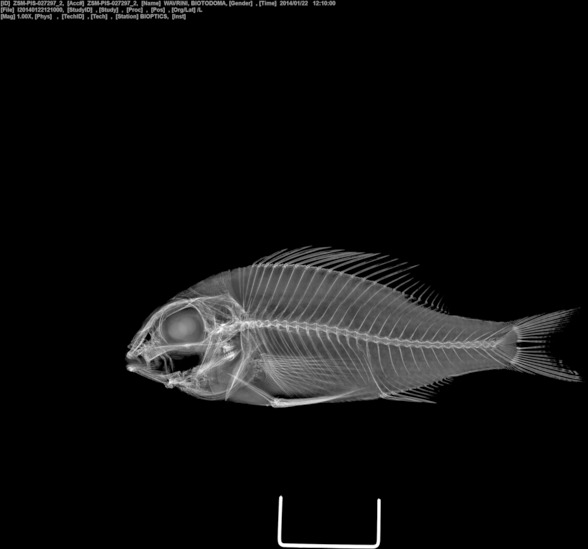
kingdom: Animalia
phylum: Chordata
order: Perciformes
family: Cichlidae
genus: Biotodoma
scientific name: Biotodoma wavrini
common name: Orinoco eartheater
